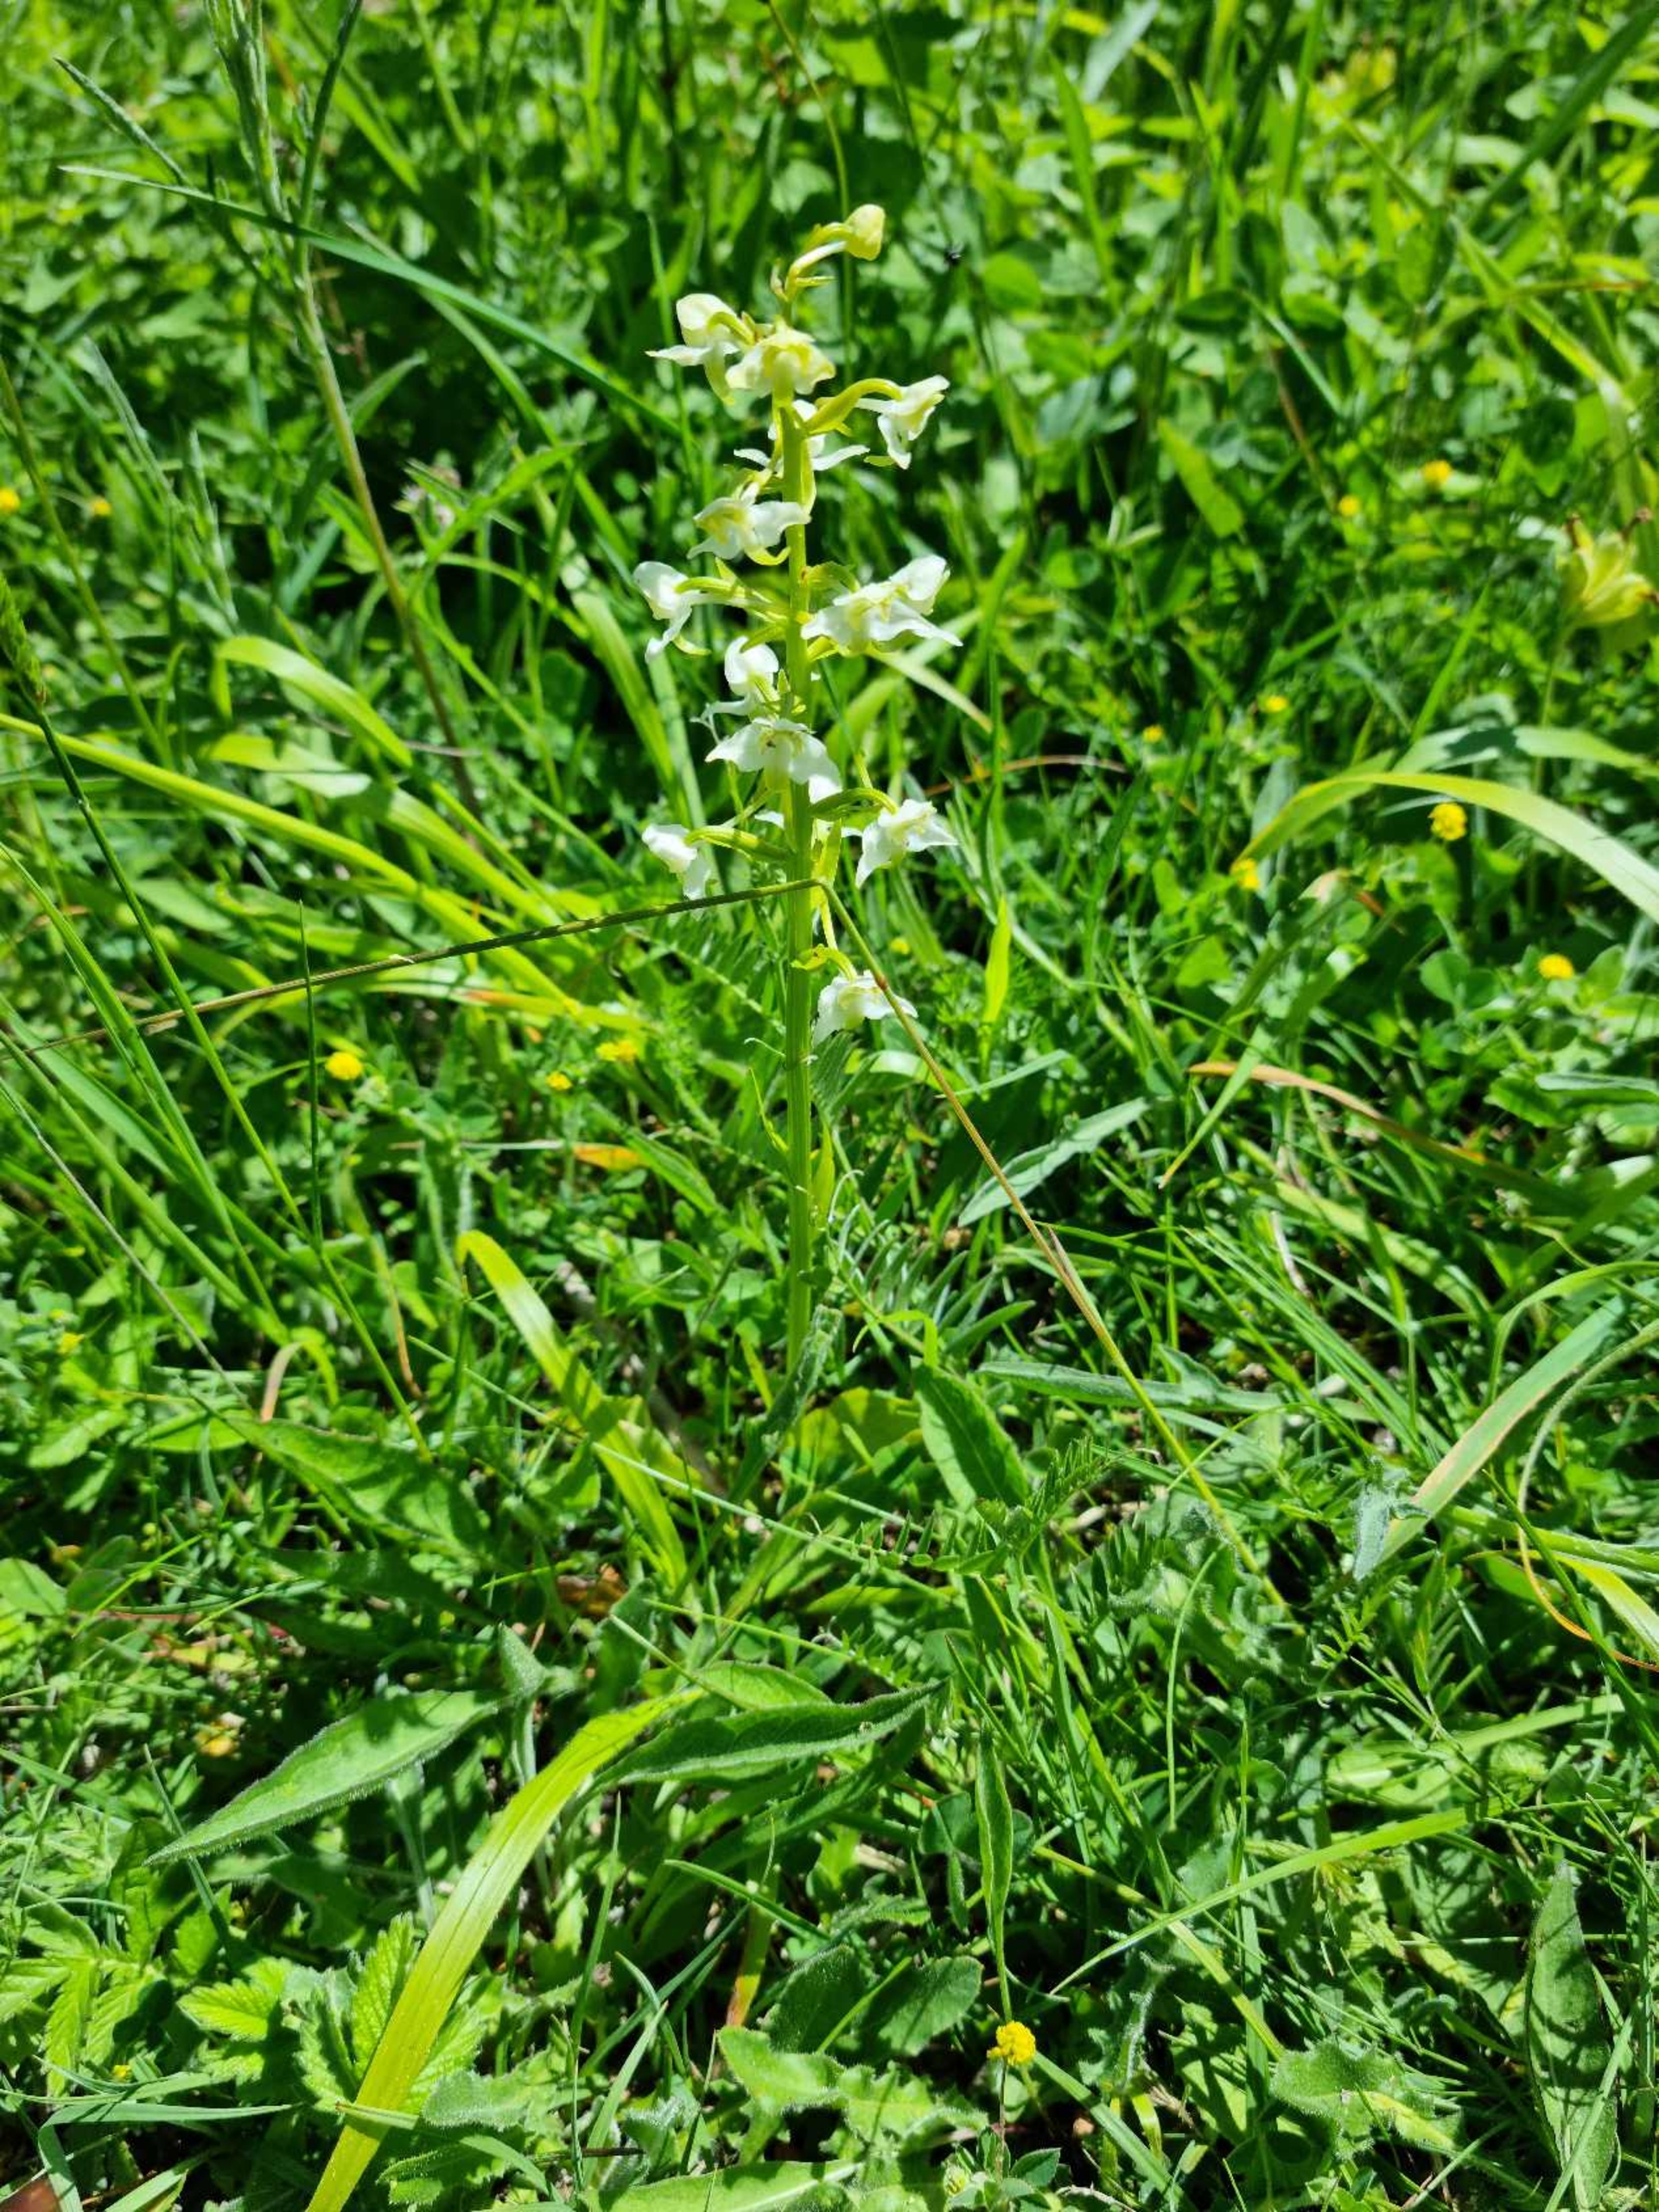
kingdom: Plantae
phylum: Tracheophyta
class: Liliopsida
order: Asparagales
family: Orchidaceae
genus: Platanthera
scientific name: Platanthera chlorantha
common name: Skov-gøgelilje
